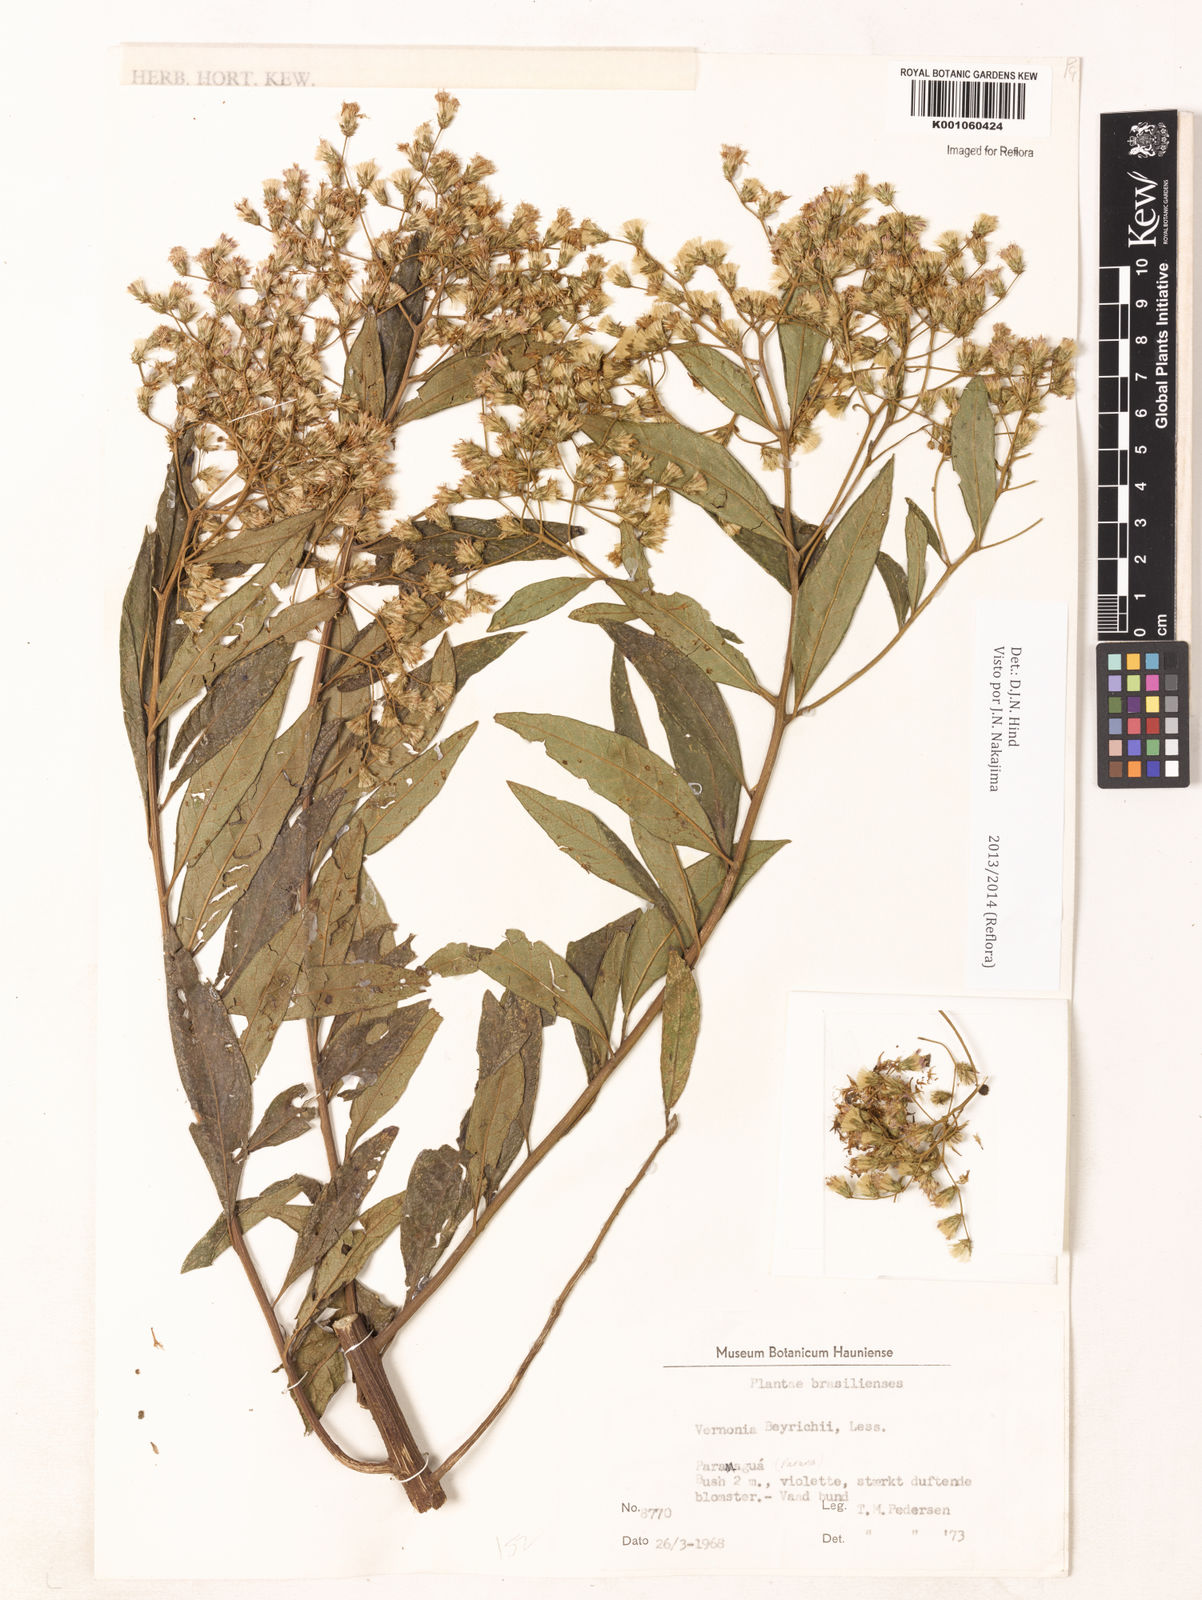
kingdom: Plantae
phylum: Tracheophyta
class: Magnoliopsida
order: Asterales
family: Asteraceae
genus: Vernonanthura
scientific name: Vernonanthura beyrichii
